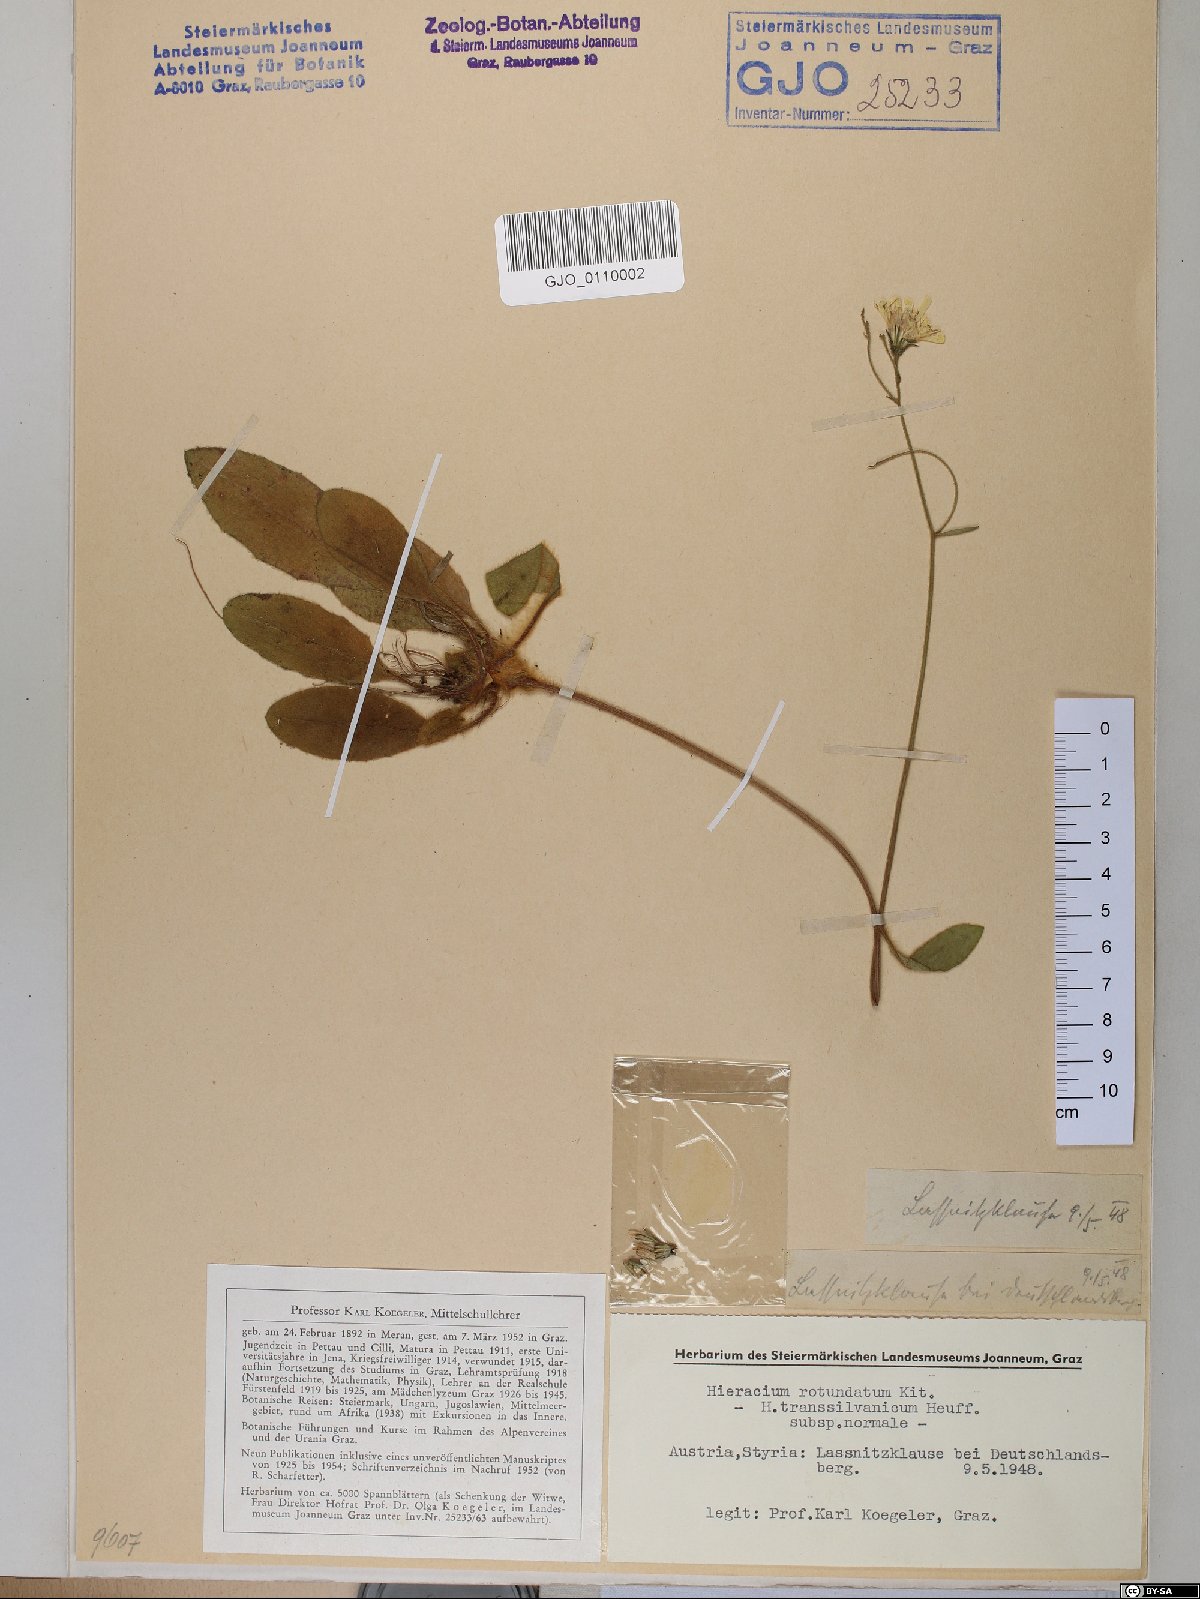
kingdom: Plantae
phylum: Tracheophyta
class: Magnoliopsida
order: Asterales
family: Asteraceae
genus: Hieracium
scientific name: Hieracium transylvanicum
